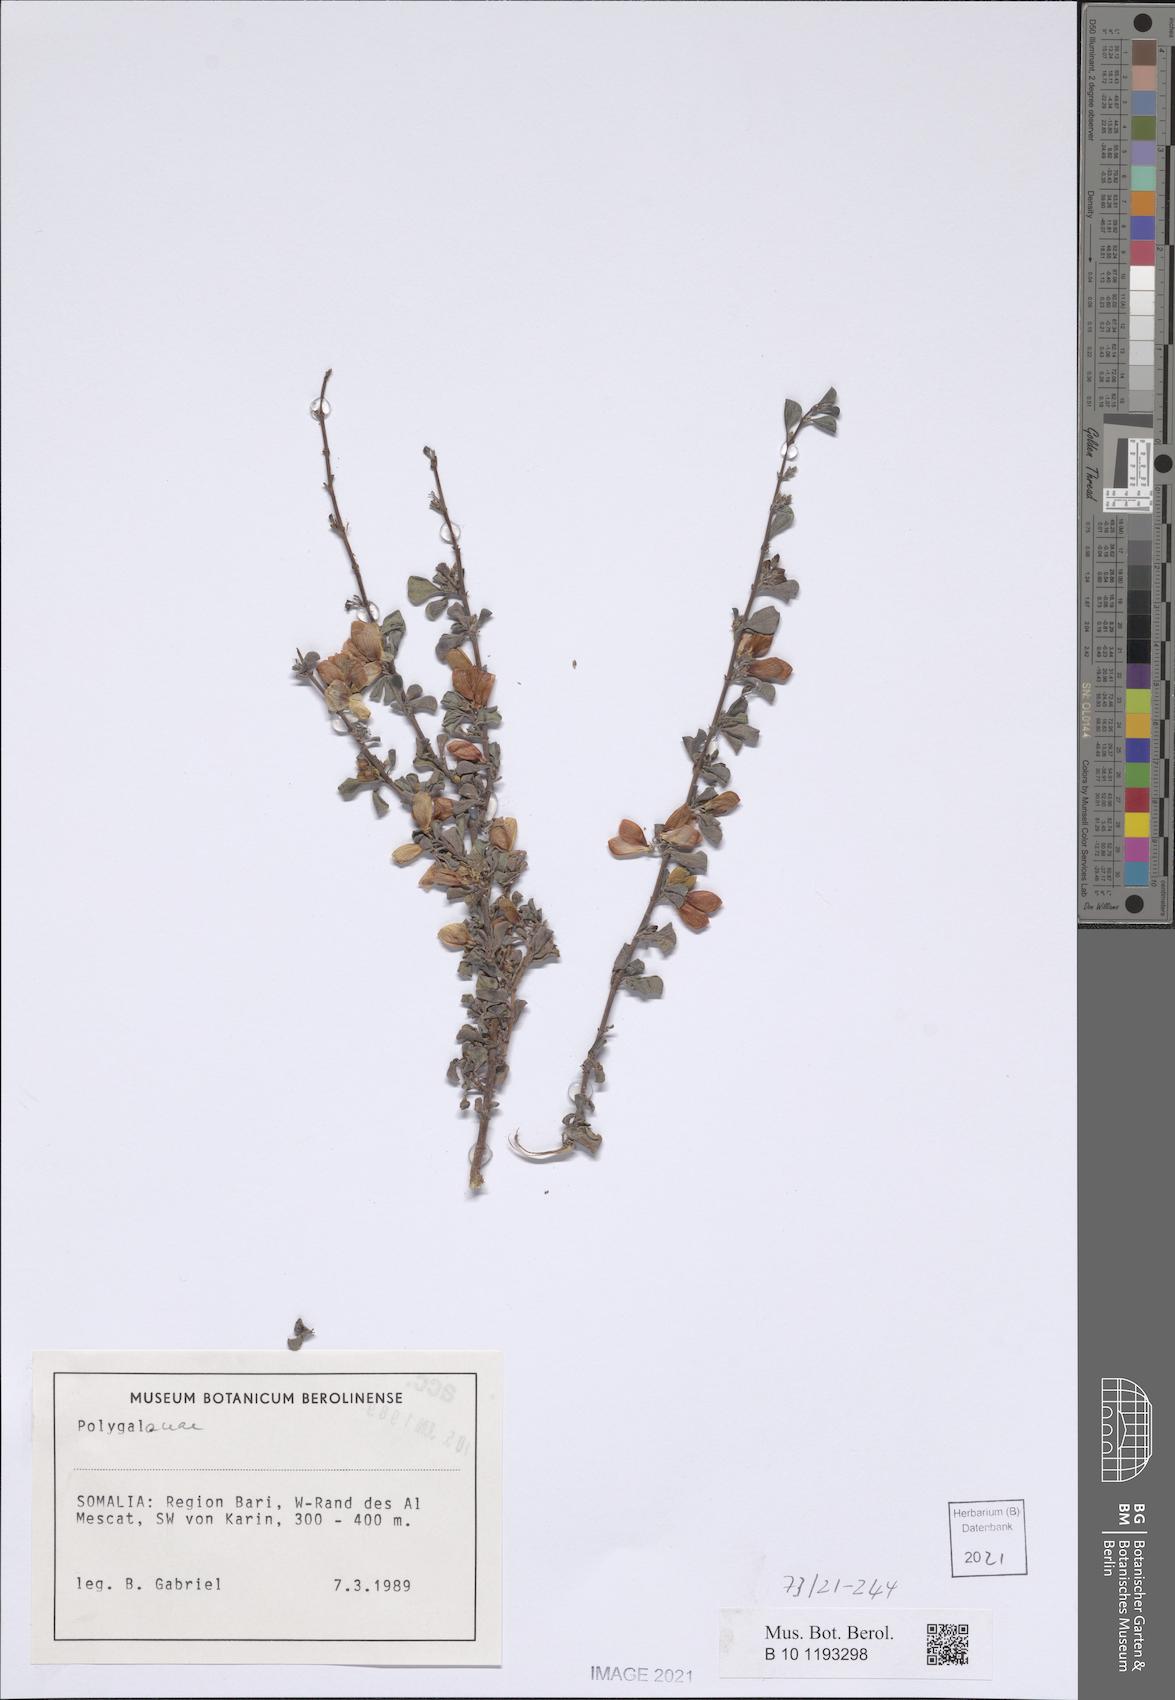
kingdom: Plantae
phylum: Tracheophyta
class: Magnoliopsida
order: Fabales
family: Polygalaceae
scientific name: Polygalaceae
